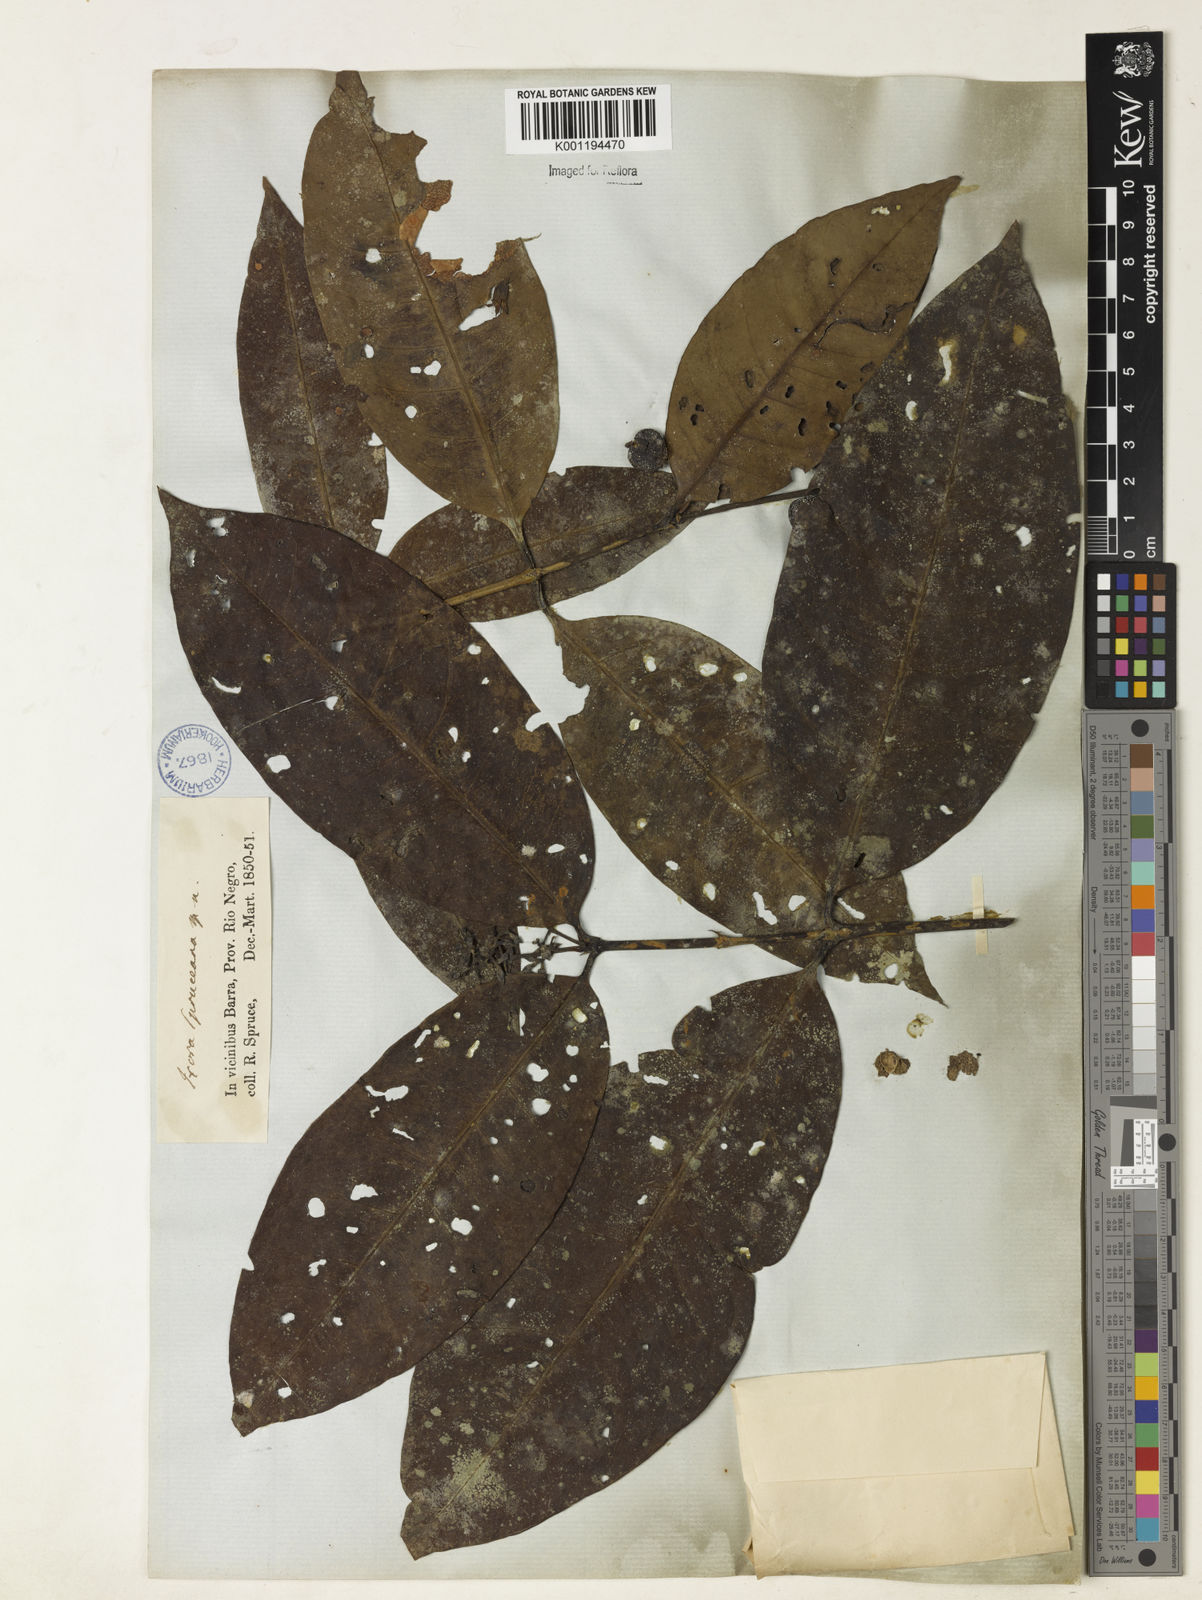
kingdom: Plantae
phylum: Tracheophyta
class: Magnoliopsida
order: Gentianales
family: Rubiaceae
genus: Ixora
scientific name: Ixora
